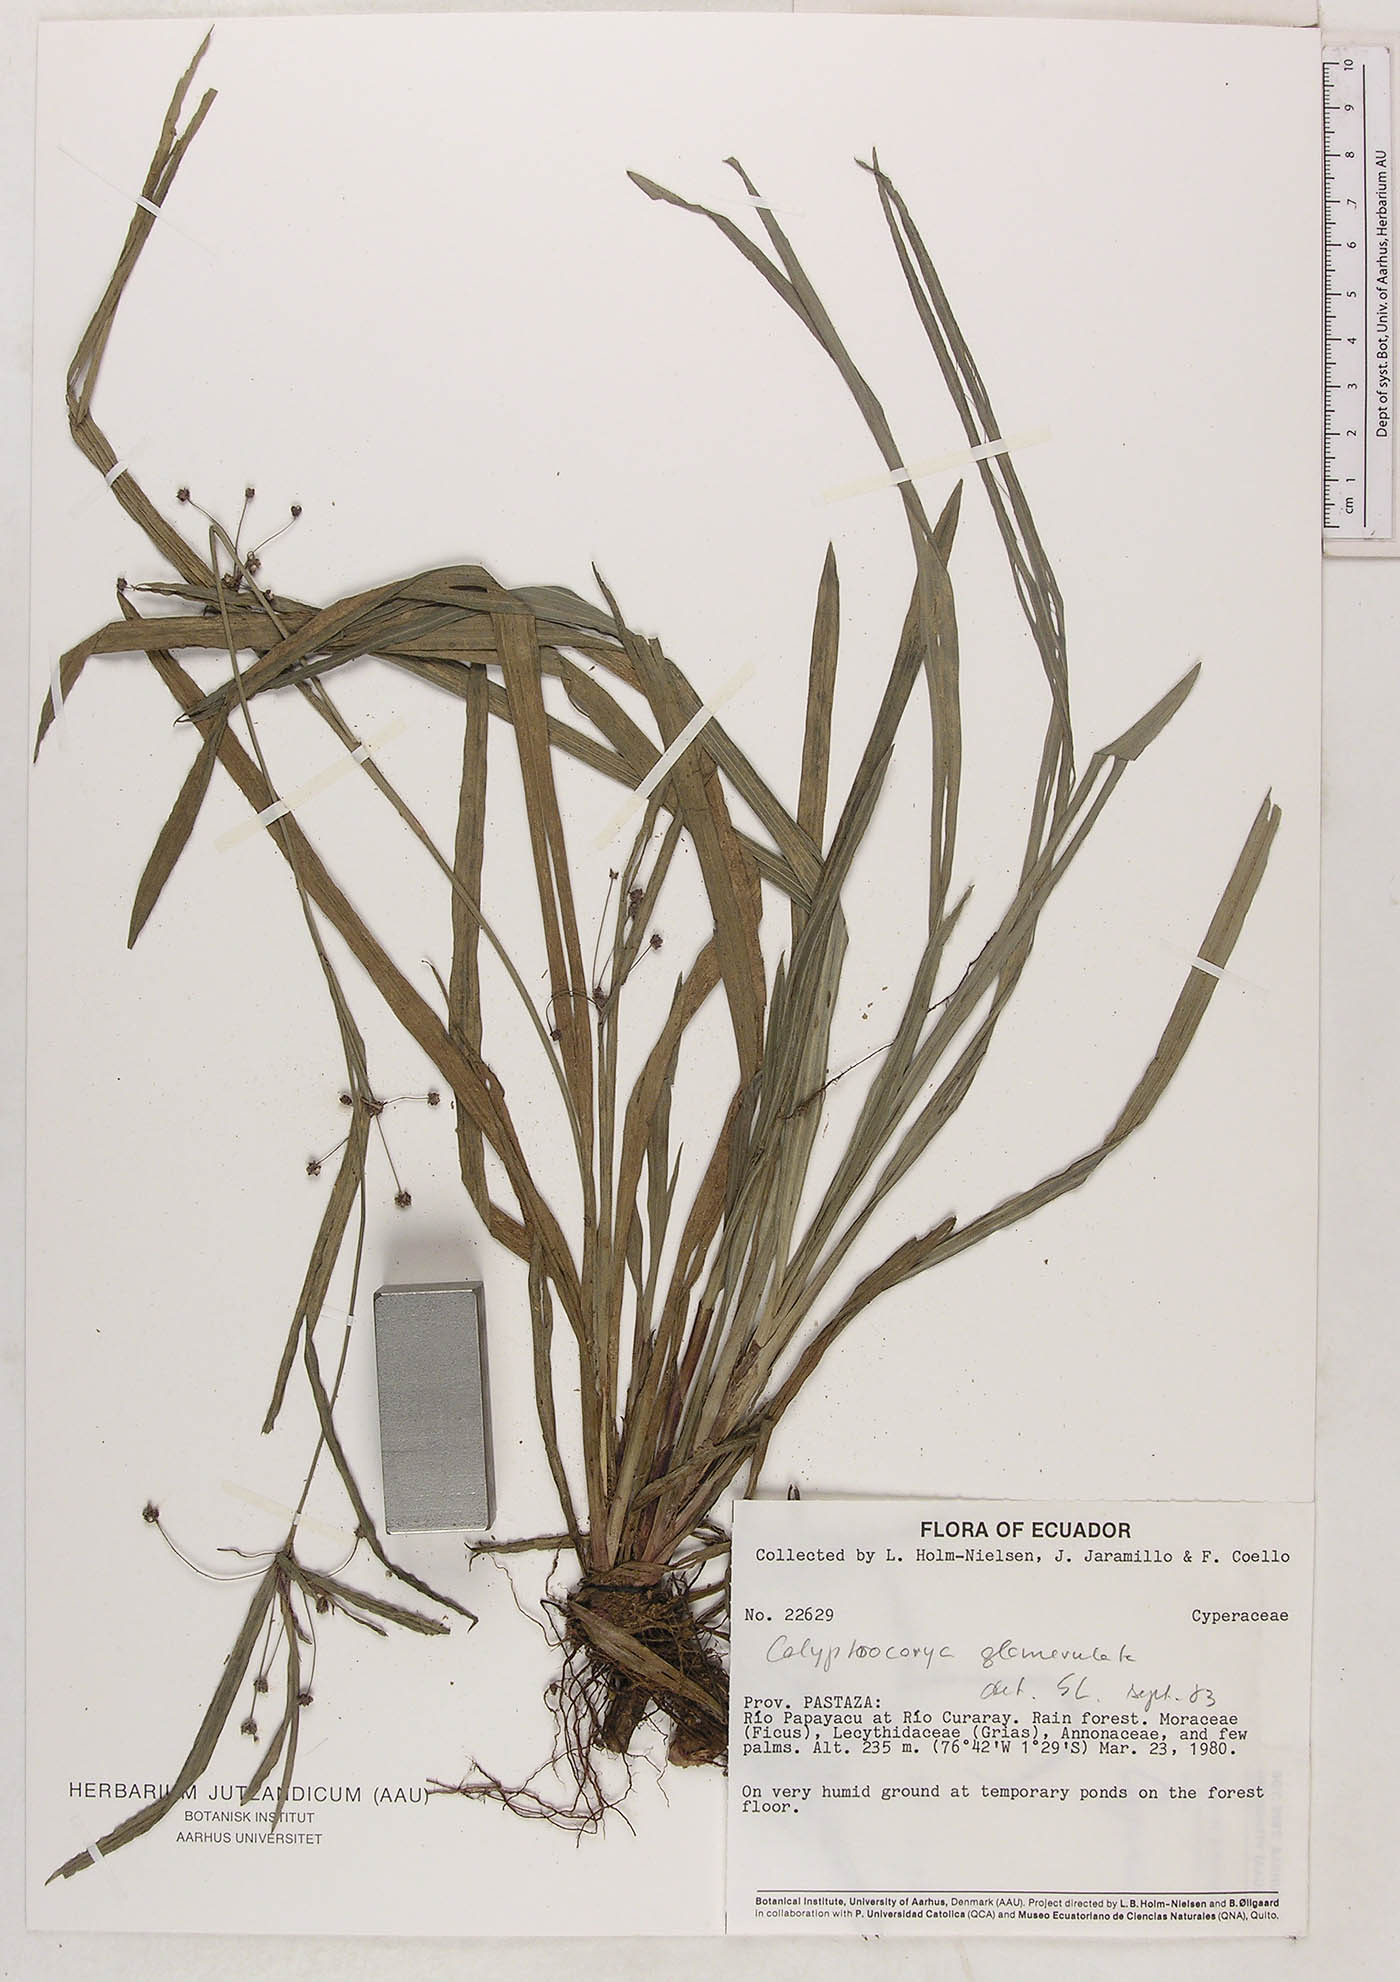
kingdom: Plantae
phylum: Tracheophyta
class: Liliopsida
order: Poales
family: Cyperaceae
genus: Calyptrocarya
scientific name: Calyptrocarya glomerulata
